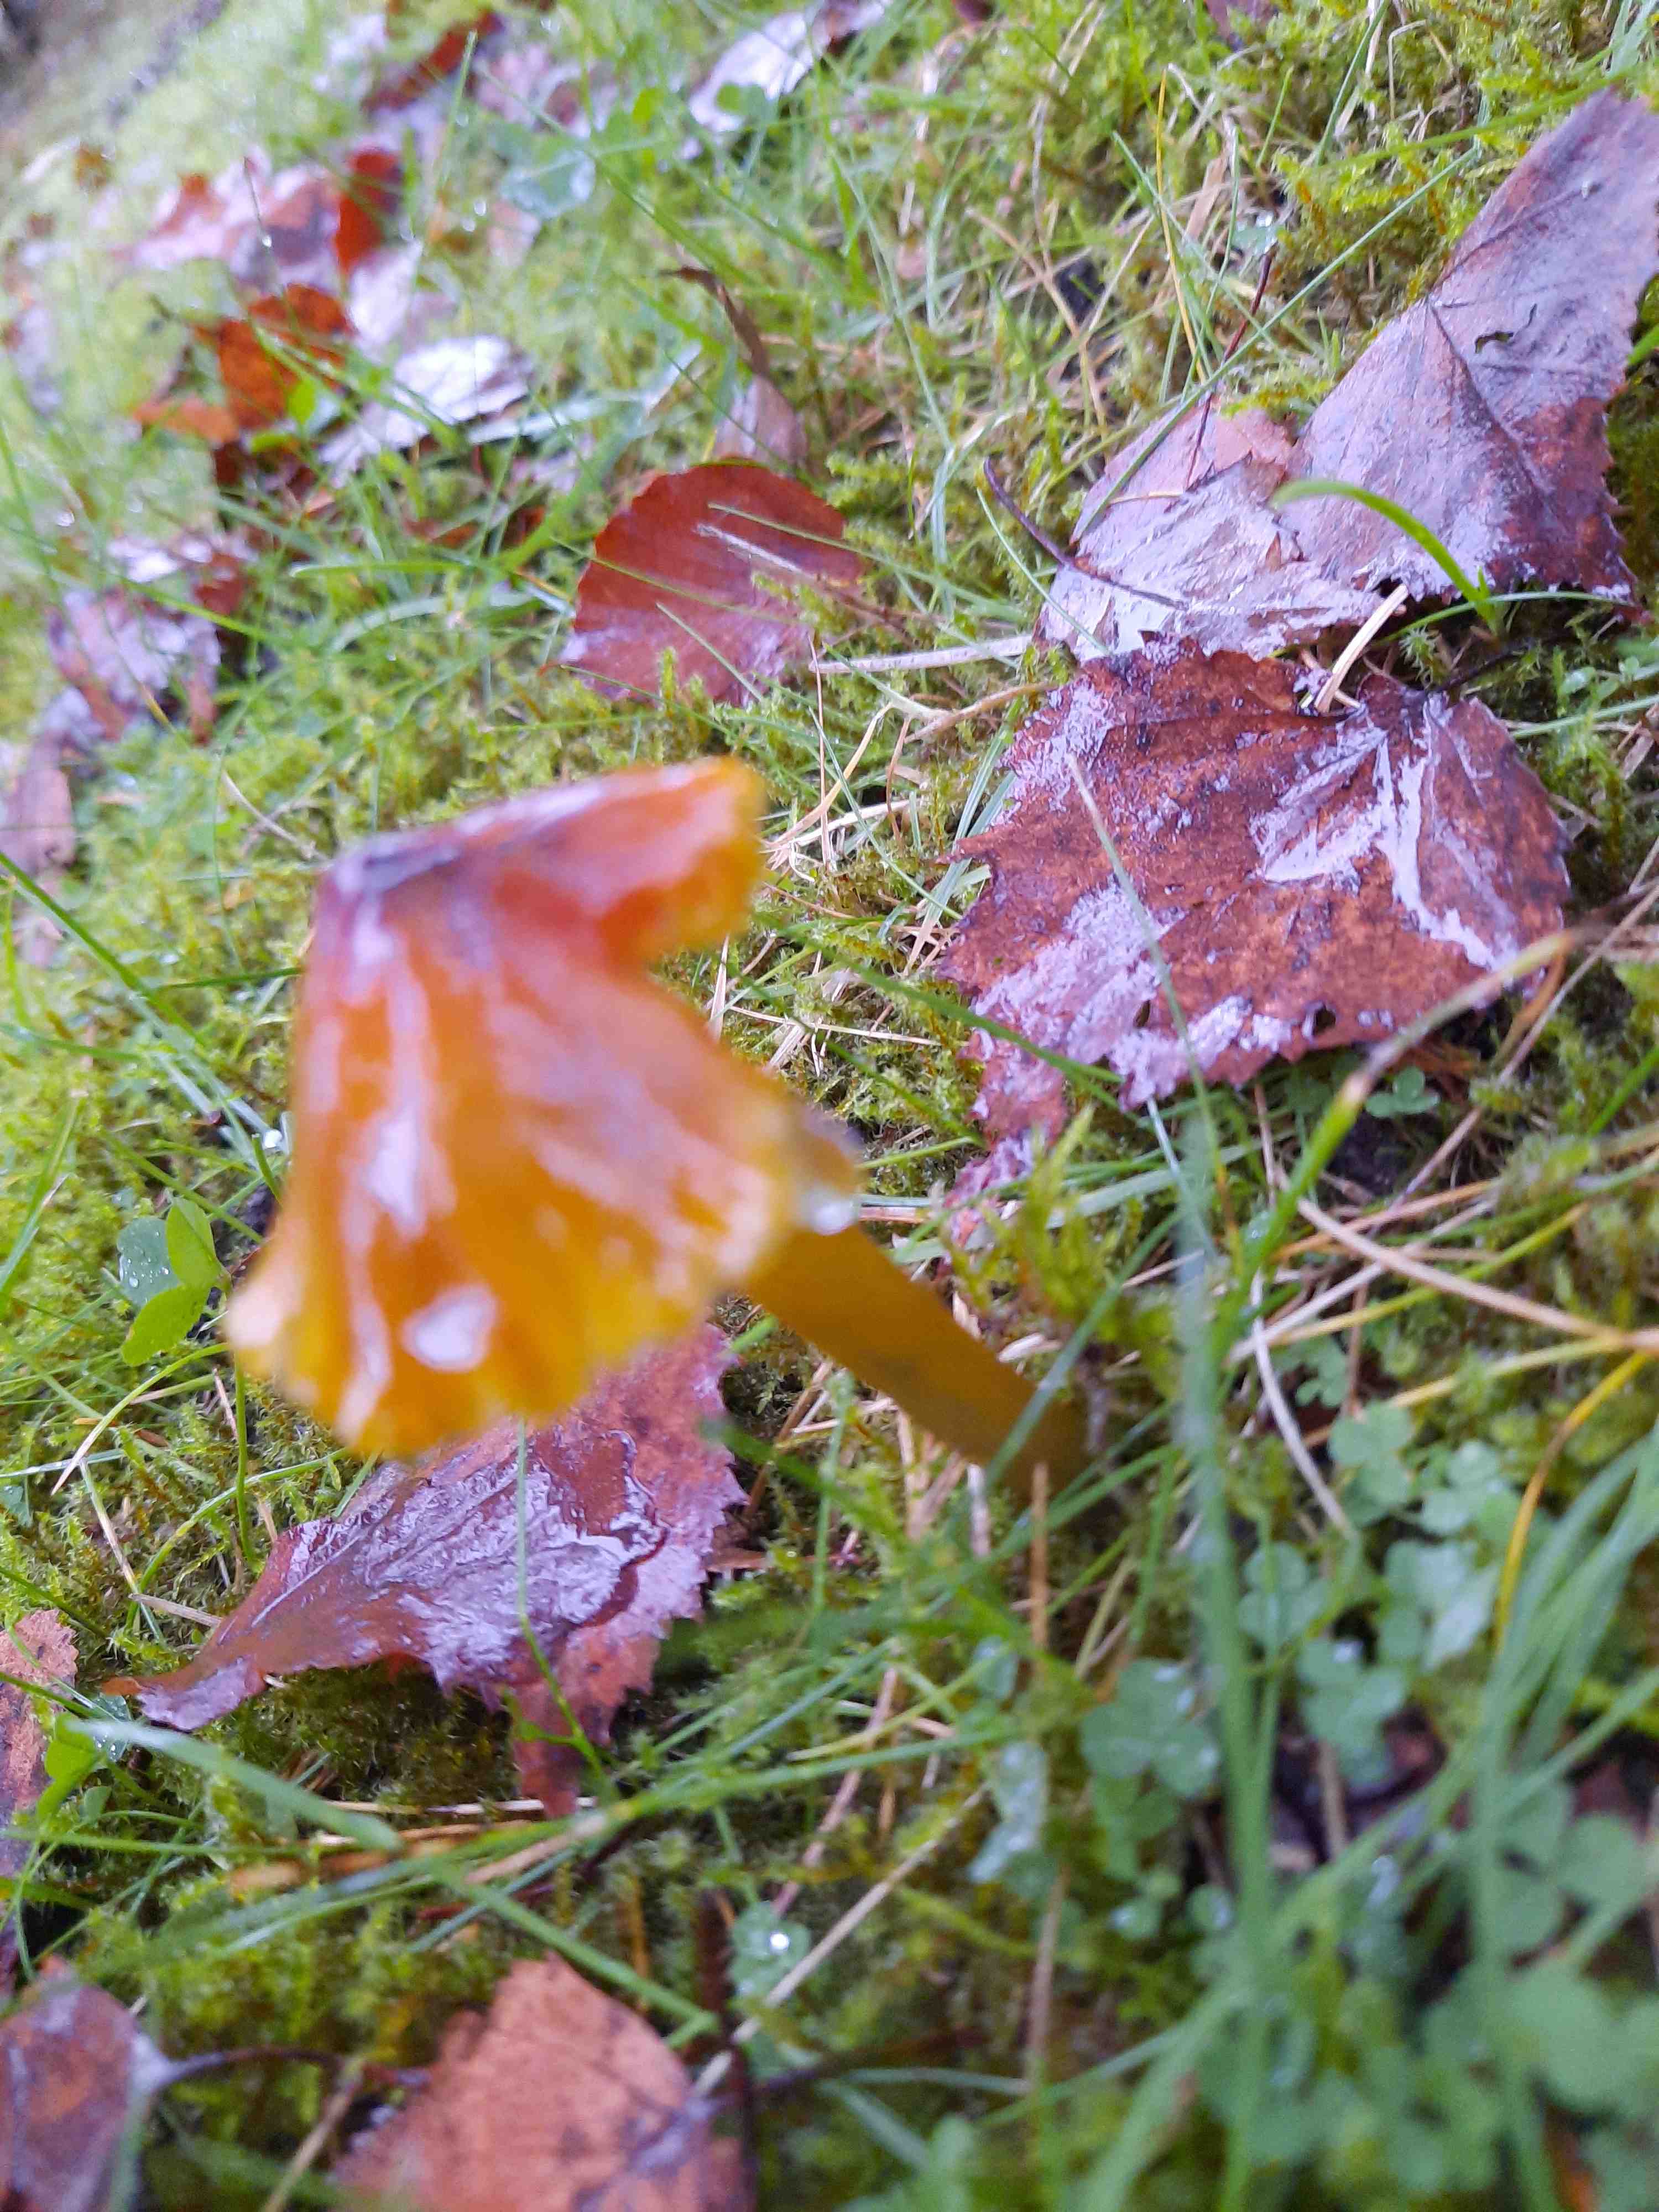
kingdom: Fungi
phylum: Basidiomycota
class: Agaricomycetes
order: Agaricales
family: Hygrophoraceae
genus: Hygrocybe
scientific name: Hygrocybe conica
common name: kegle-vokshat
